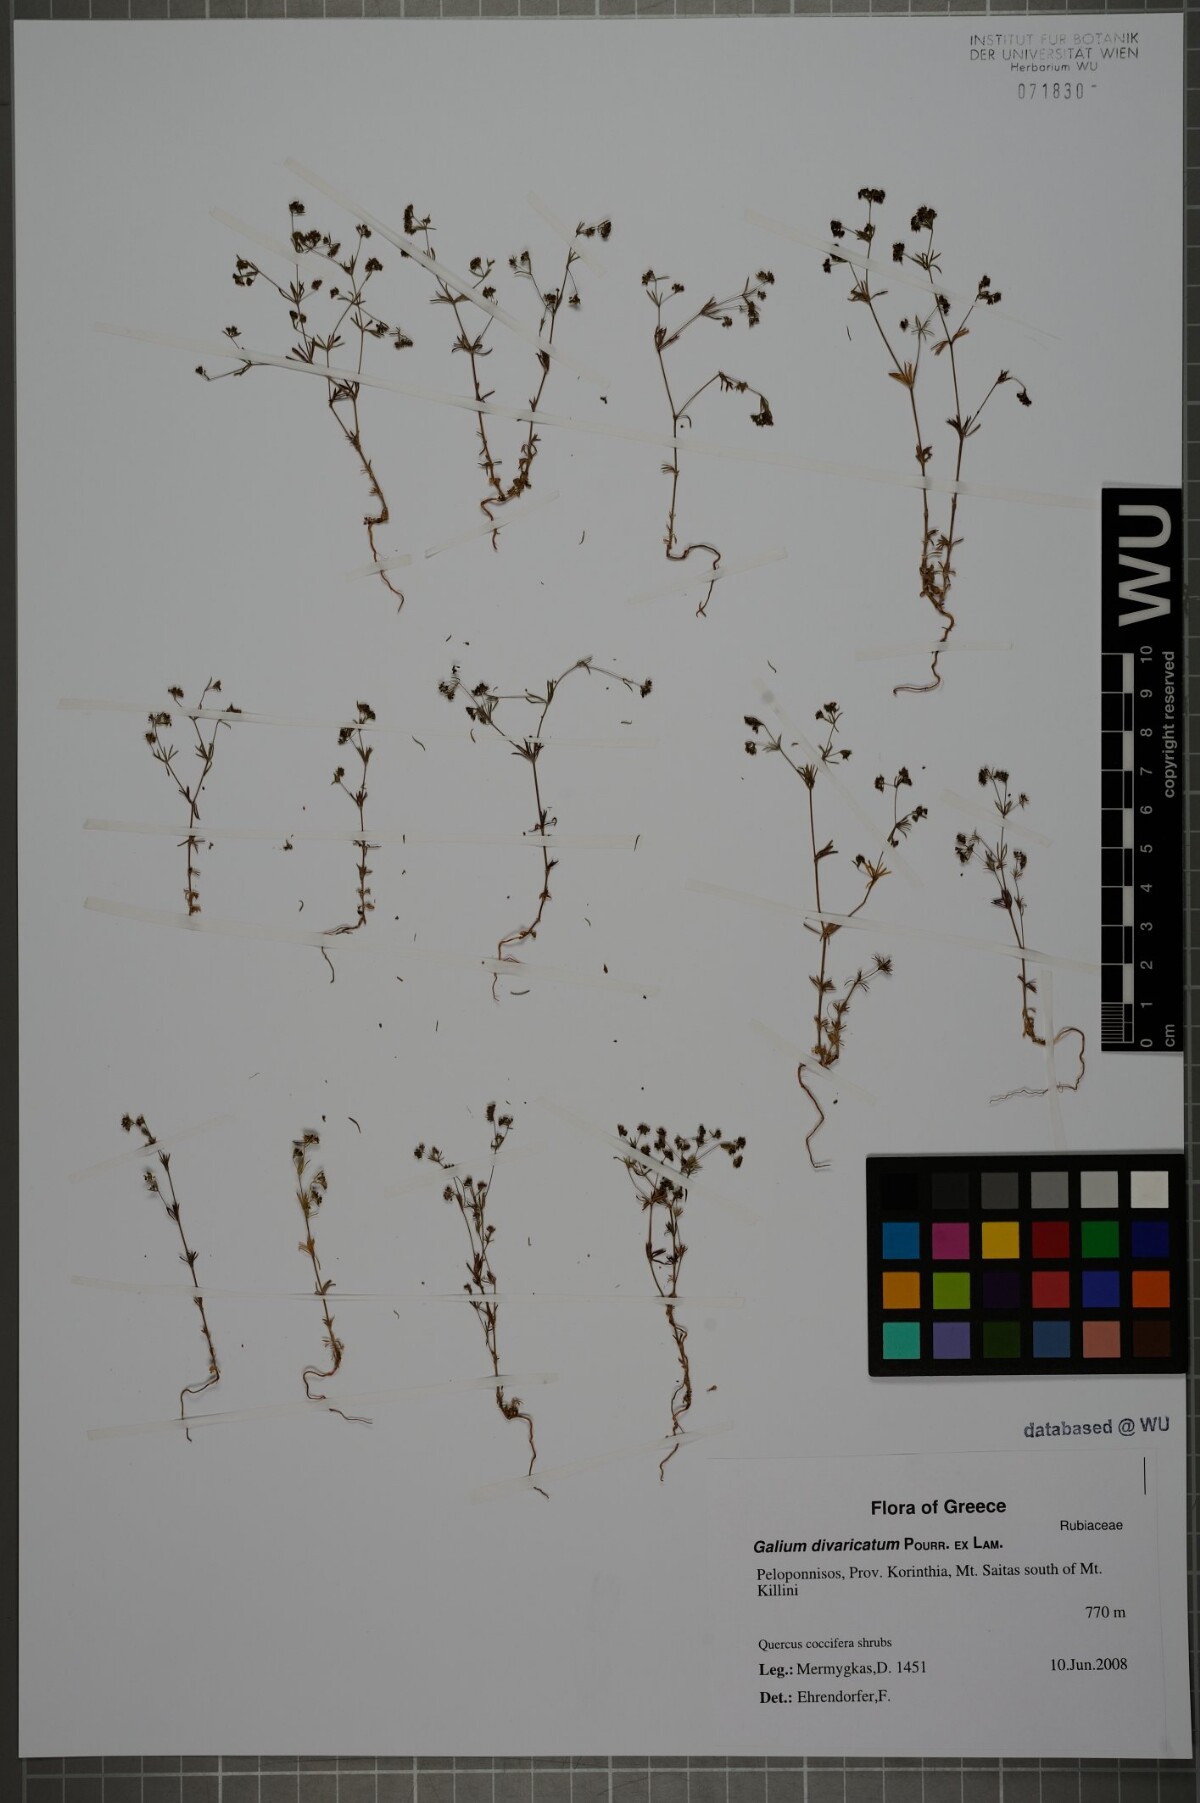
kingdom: Plantae
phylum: Tracheophyta
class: Magnoliopsida
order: Gentianales
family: Rubiaceae
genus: Galium
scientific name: Galium divaricatum
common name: Lamarck's bedstraw
